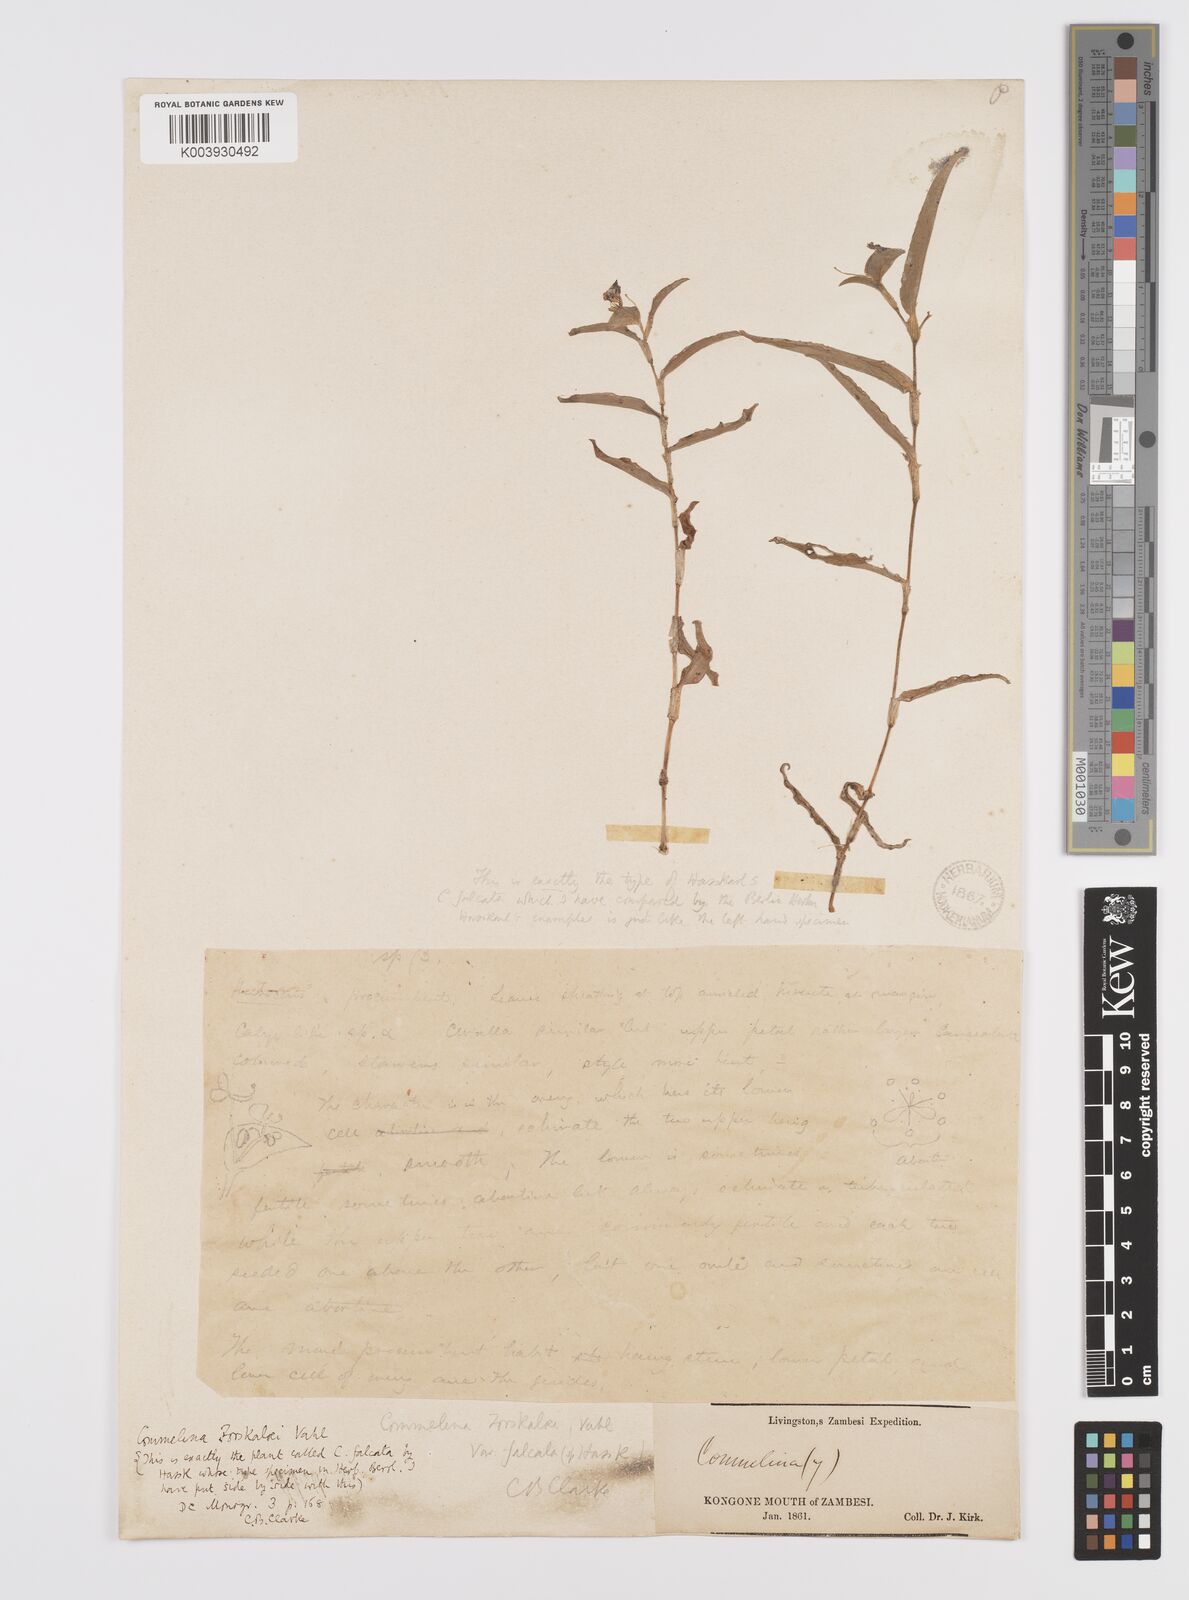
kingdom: Plantae
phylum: Tracheophyta
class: Liliopsida
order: Commelinales
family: Commelinaceae
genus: Commelina
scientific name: Commelina forskaolii
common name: Rat's ear
